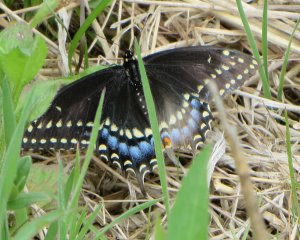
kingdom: Animalia
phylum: Arthropoda
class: Insecta
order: Lepidoptera
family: Papilionidae
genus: Papilio
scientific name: Papilio polyxenes
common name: Black Swallowtail
